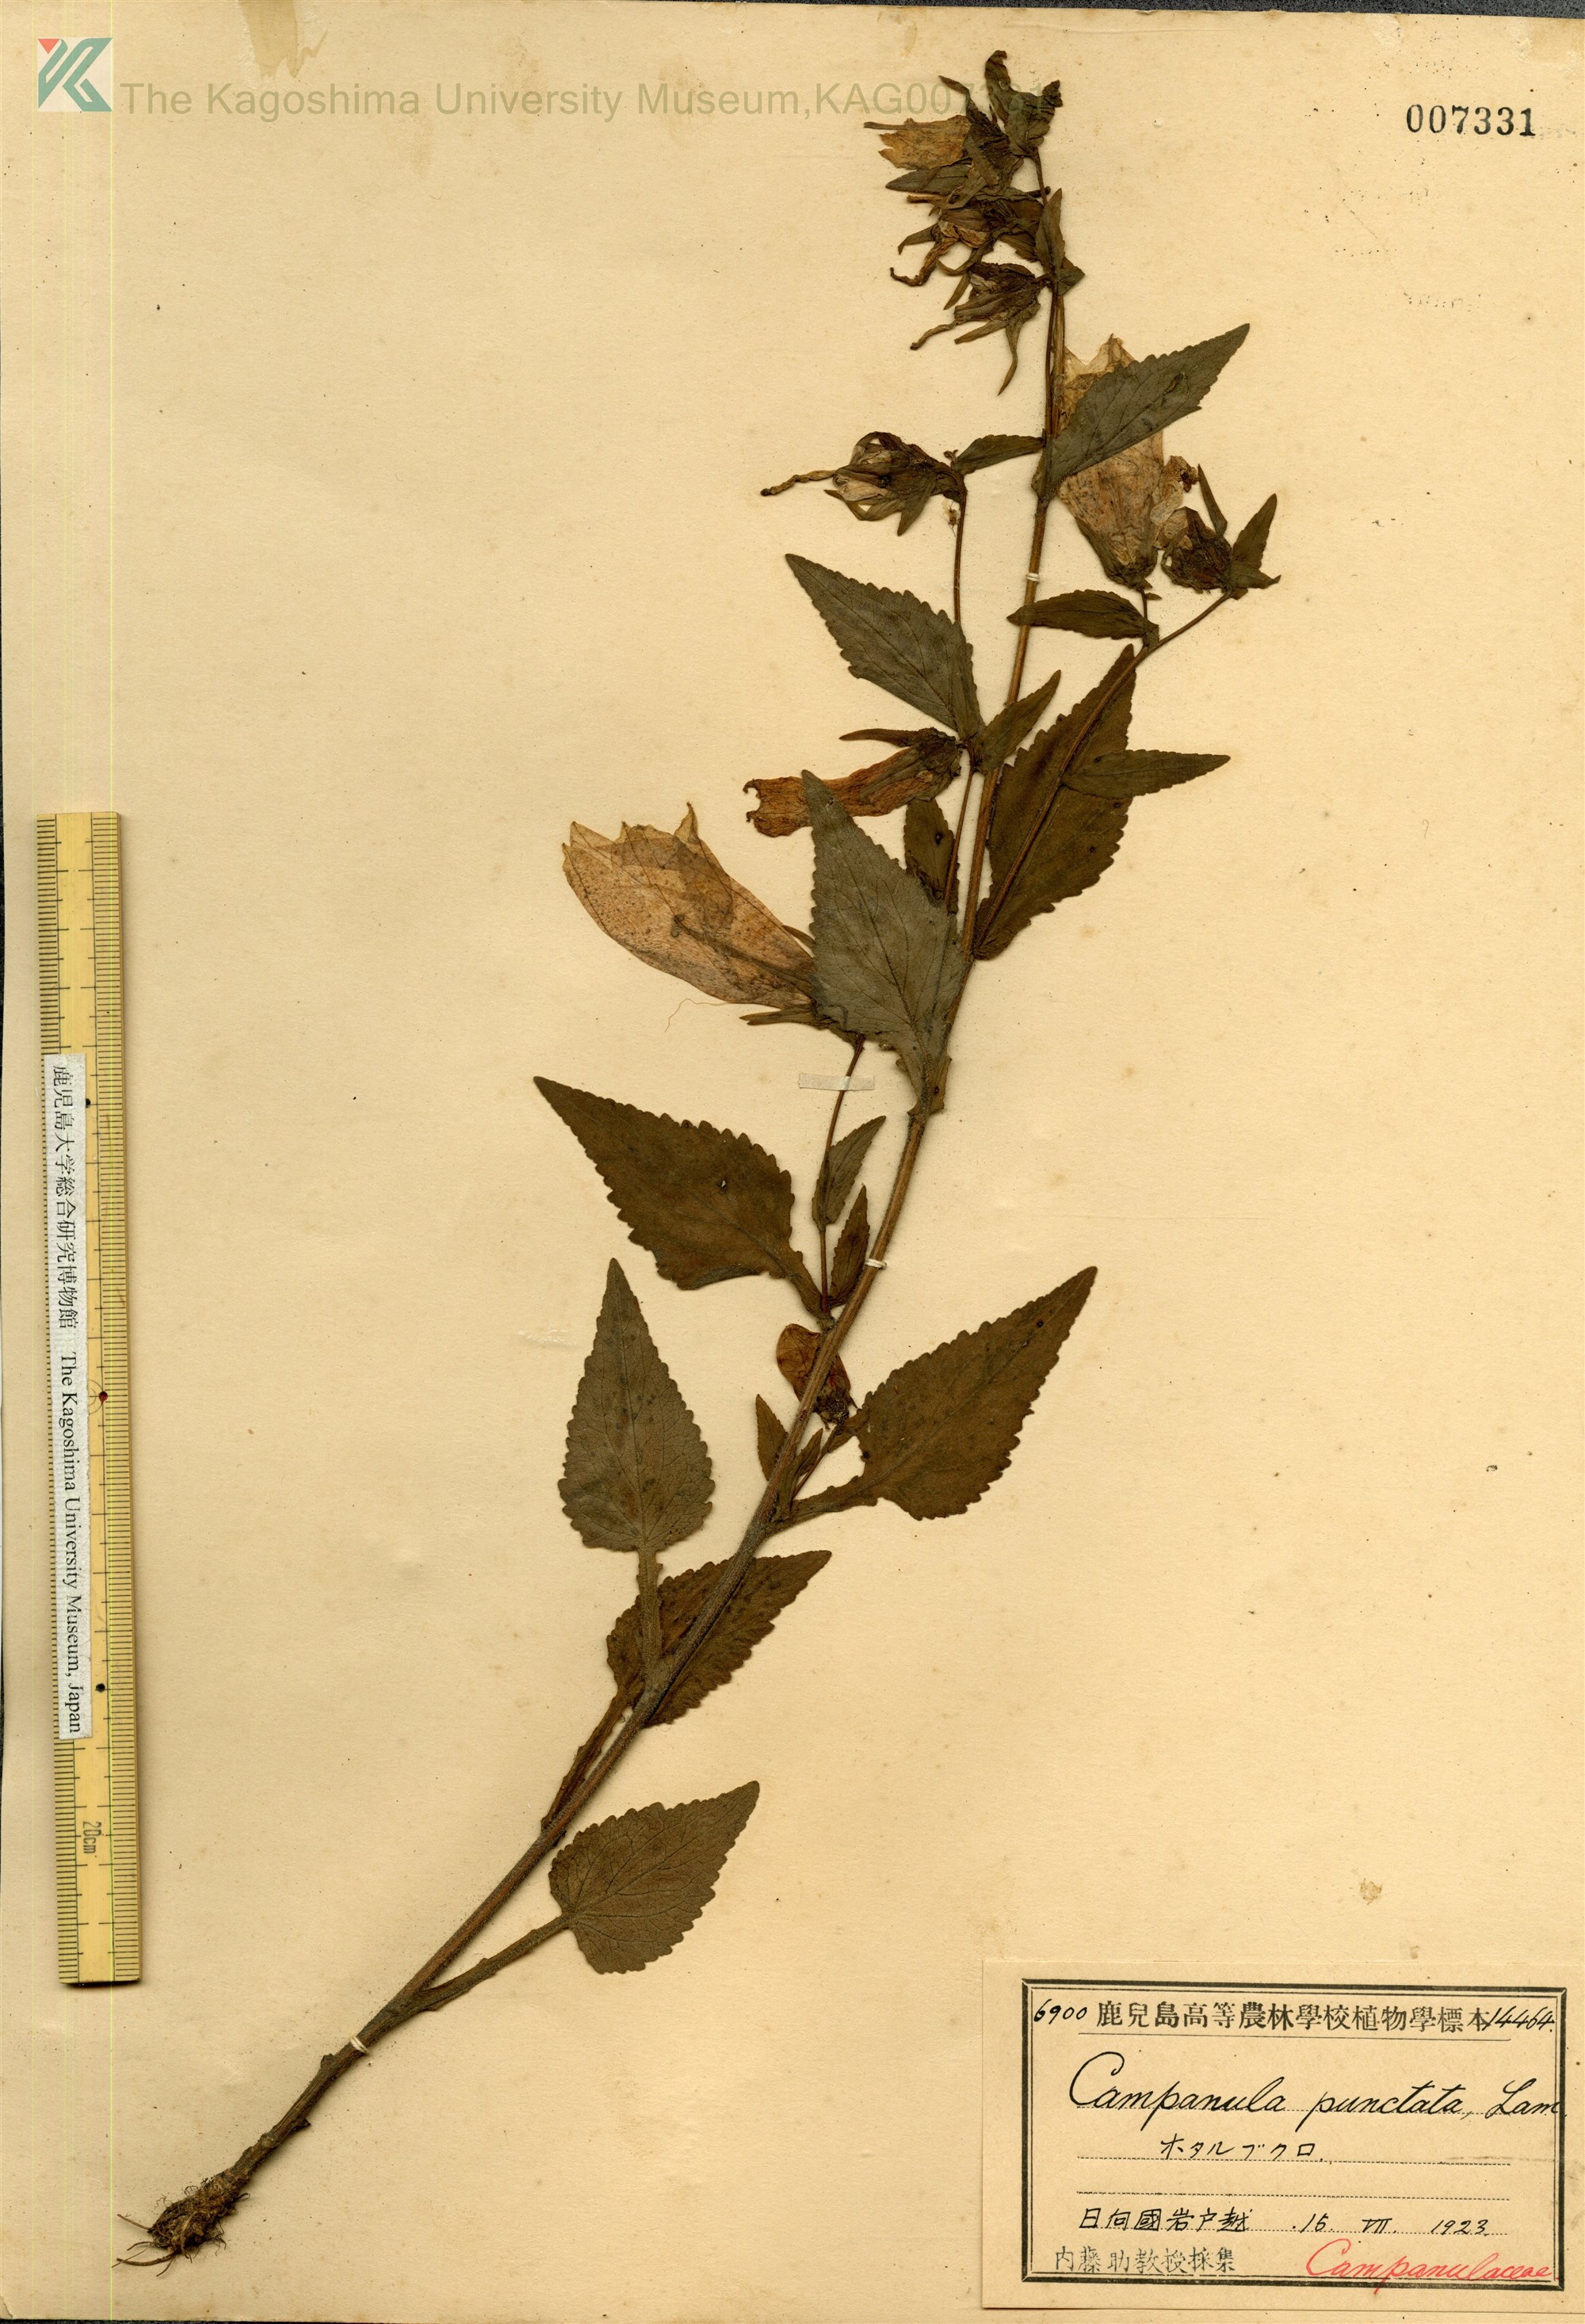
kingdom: Plantae
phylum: Tracheophyta
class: Magnoliopsida
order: Asterales
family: Campanulaceae
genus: Campanula
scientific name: Campanula punctata
